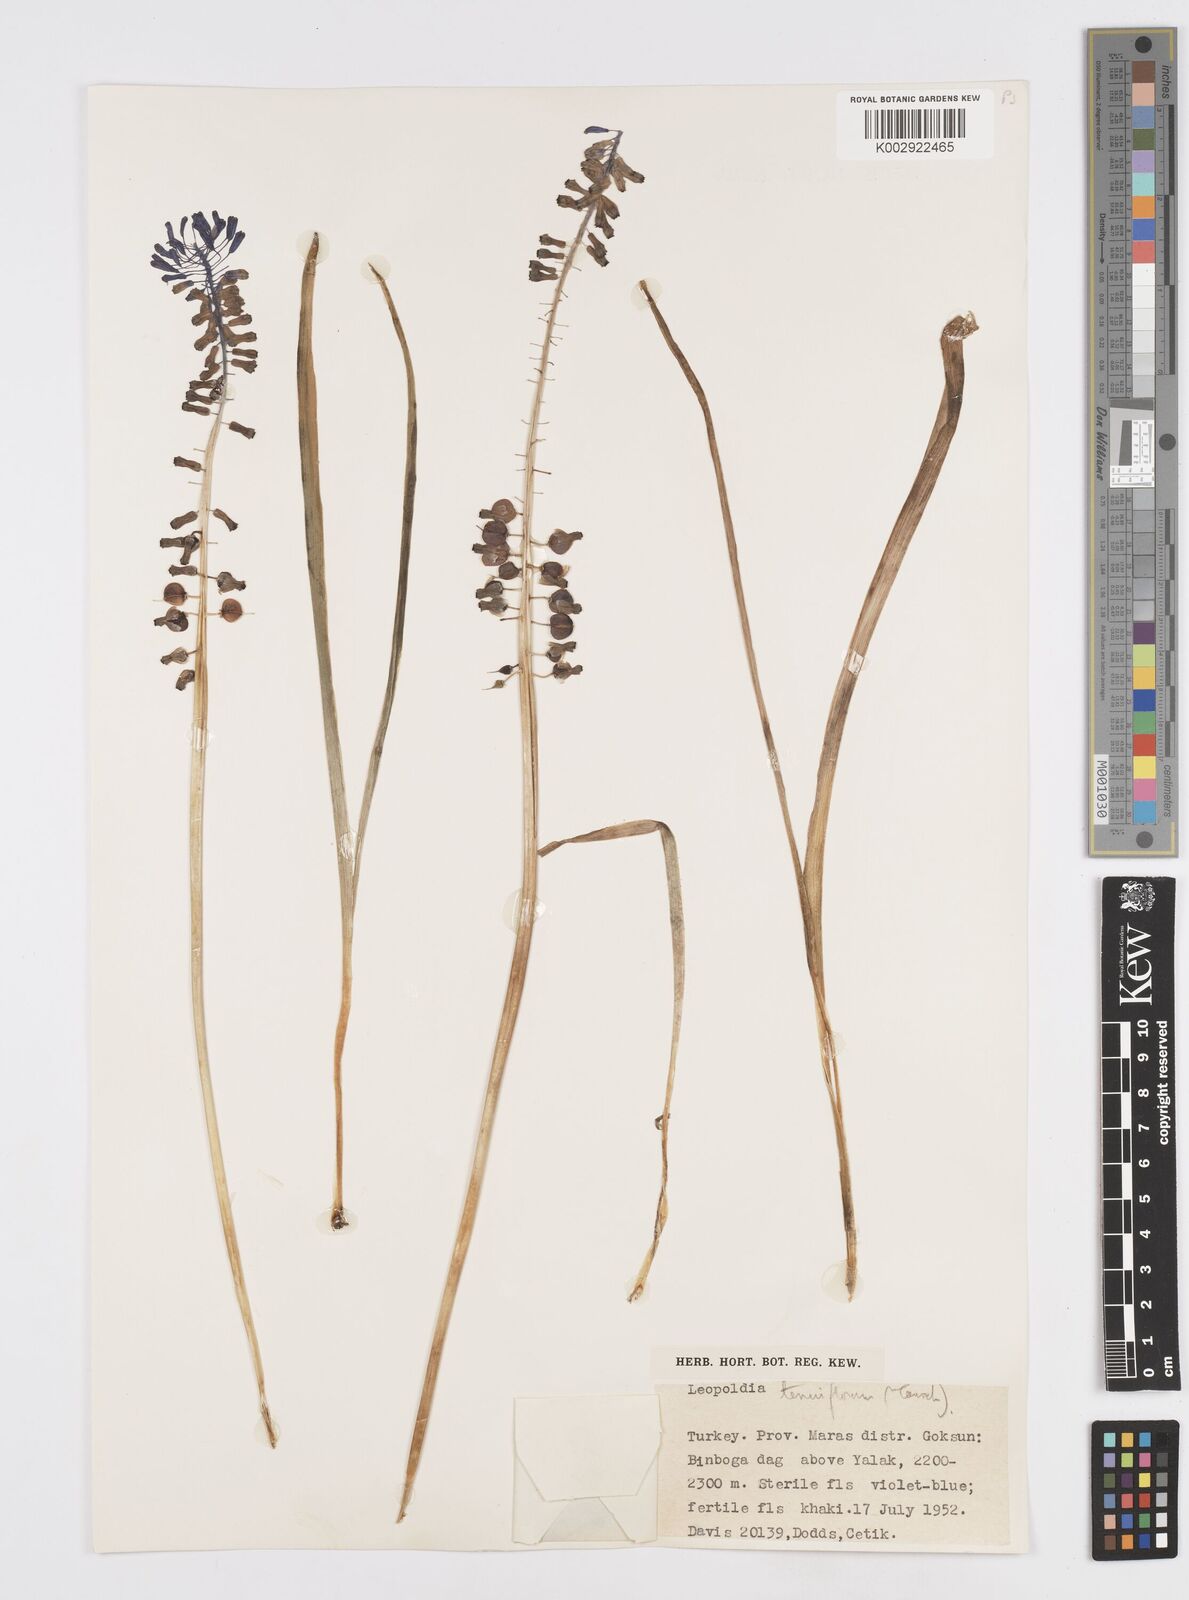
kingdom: Plantae
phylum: Tracheophyta
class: Liliopsida
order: Asparagales
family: Asparagaceae
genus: Muscari
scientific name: Muscari tenuiflorum
